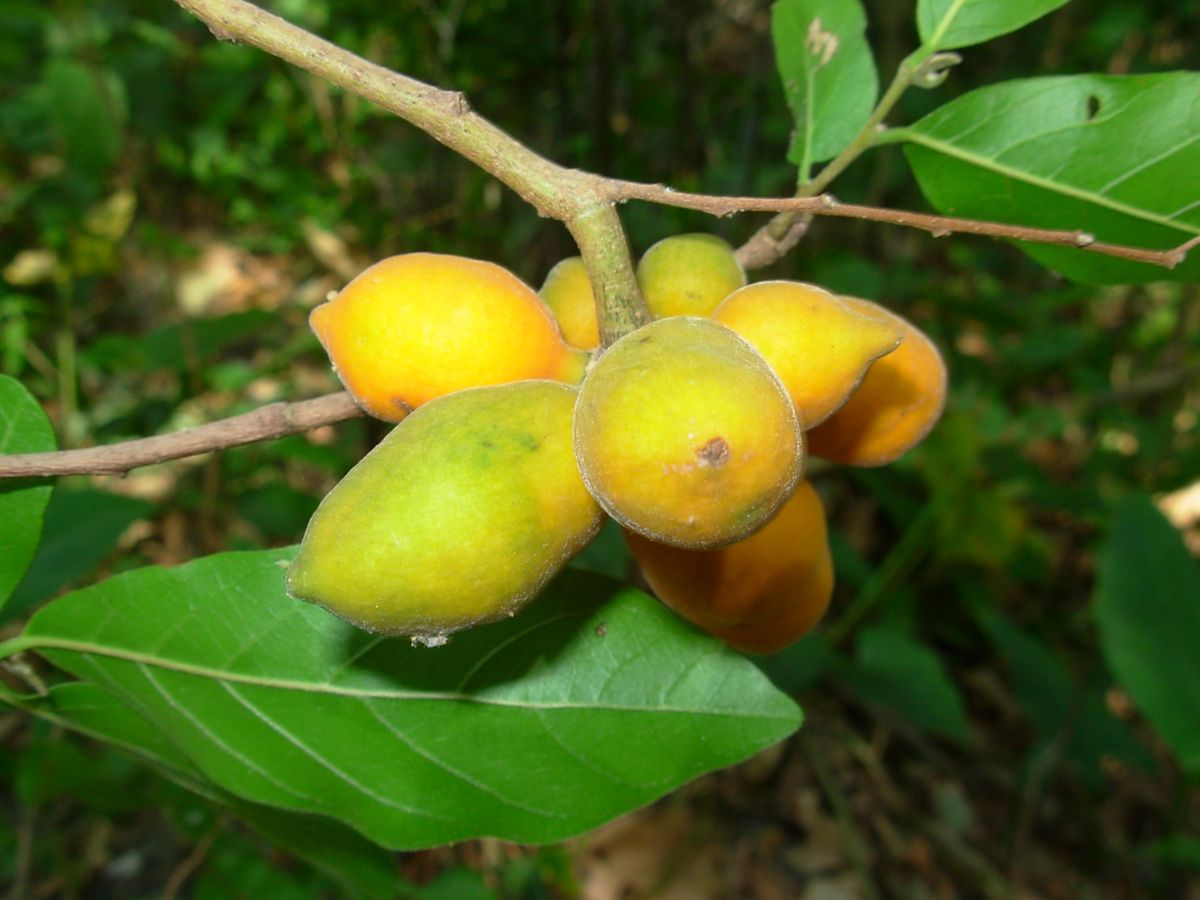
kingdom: Plantae
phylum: Tracheophyta
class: Magnoliopsida
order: Magnoliales
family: Annonaceae
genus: Sapranthus
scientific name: Sapranthus microcarpus
